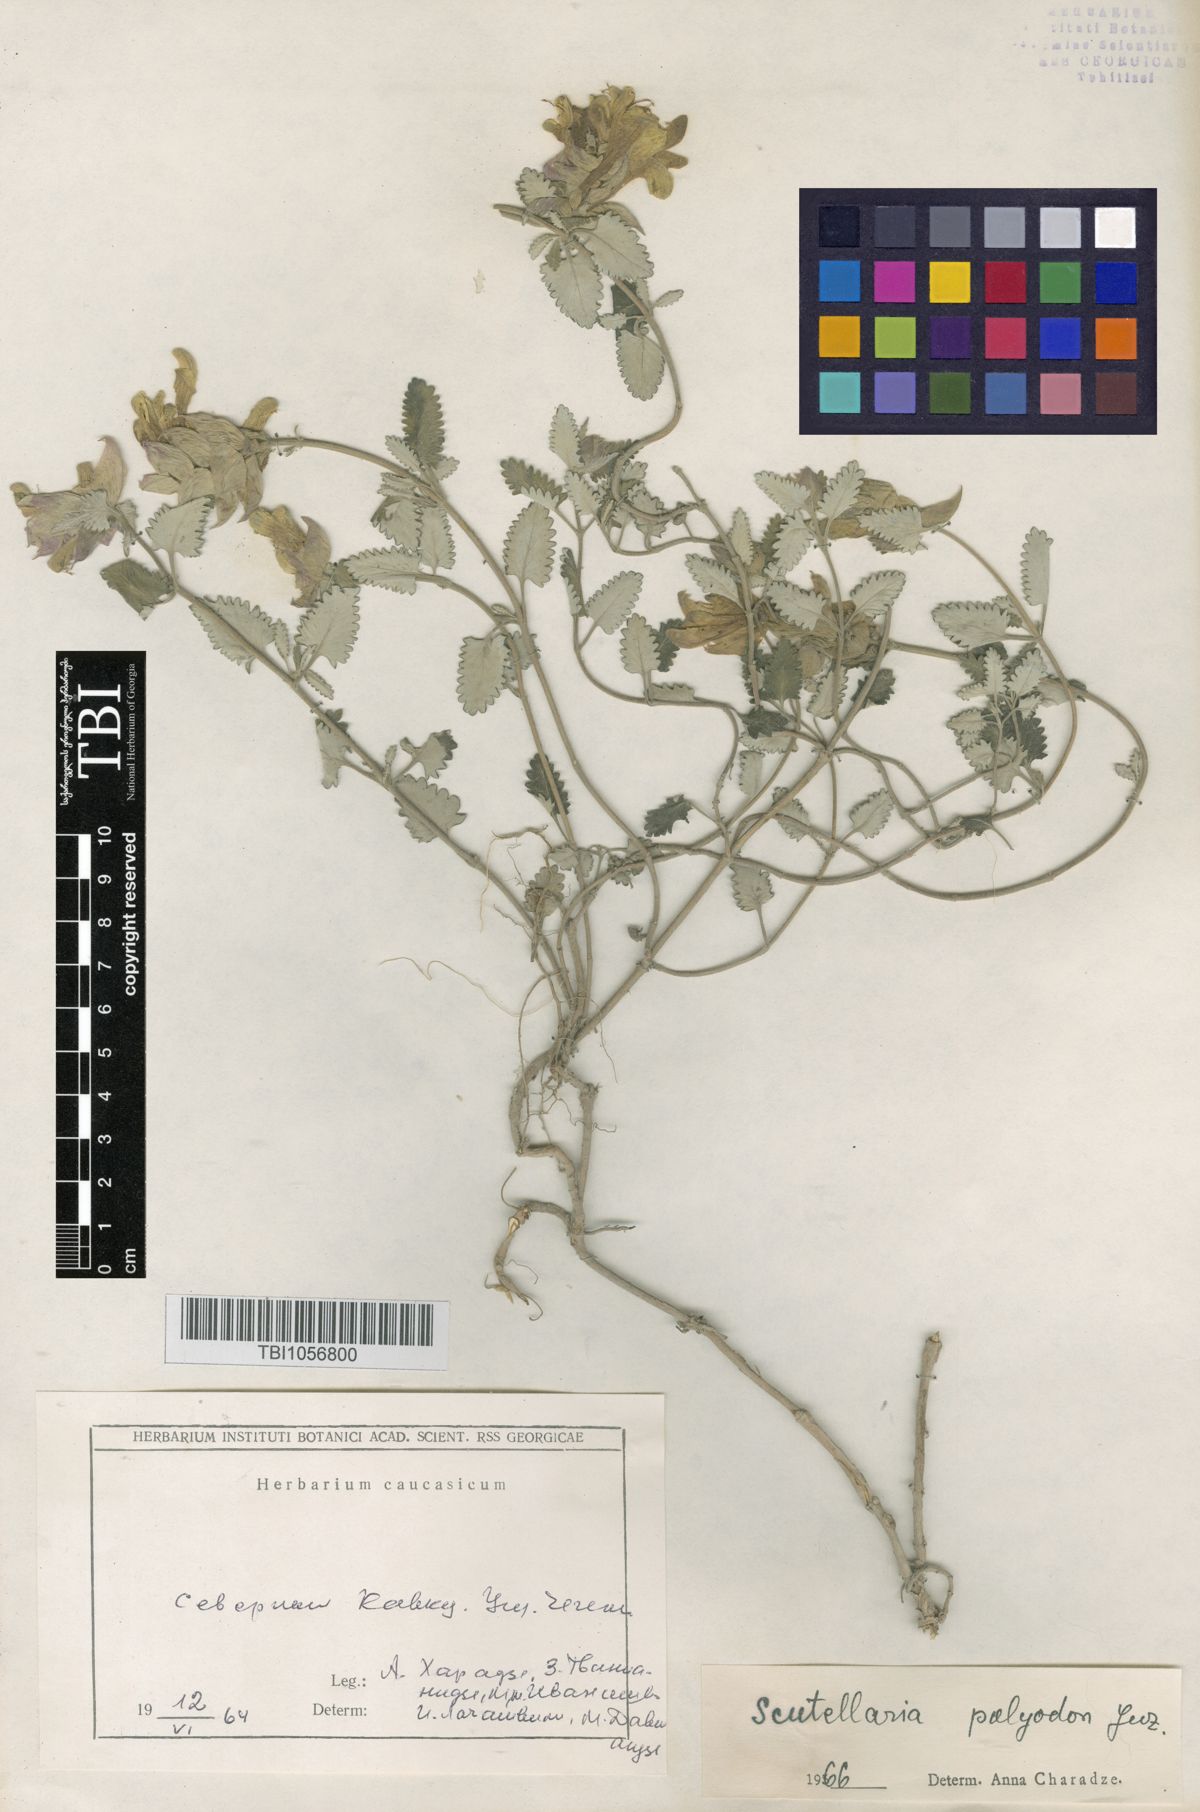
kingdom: Plantae
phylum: Tracheophyta
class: Magnoliopsida
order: Lamiales
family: Lamiaceae
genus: Scutellaria
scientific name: Scutellaria caucasica
